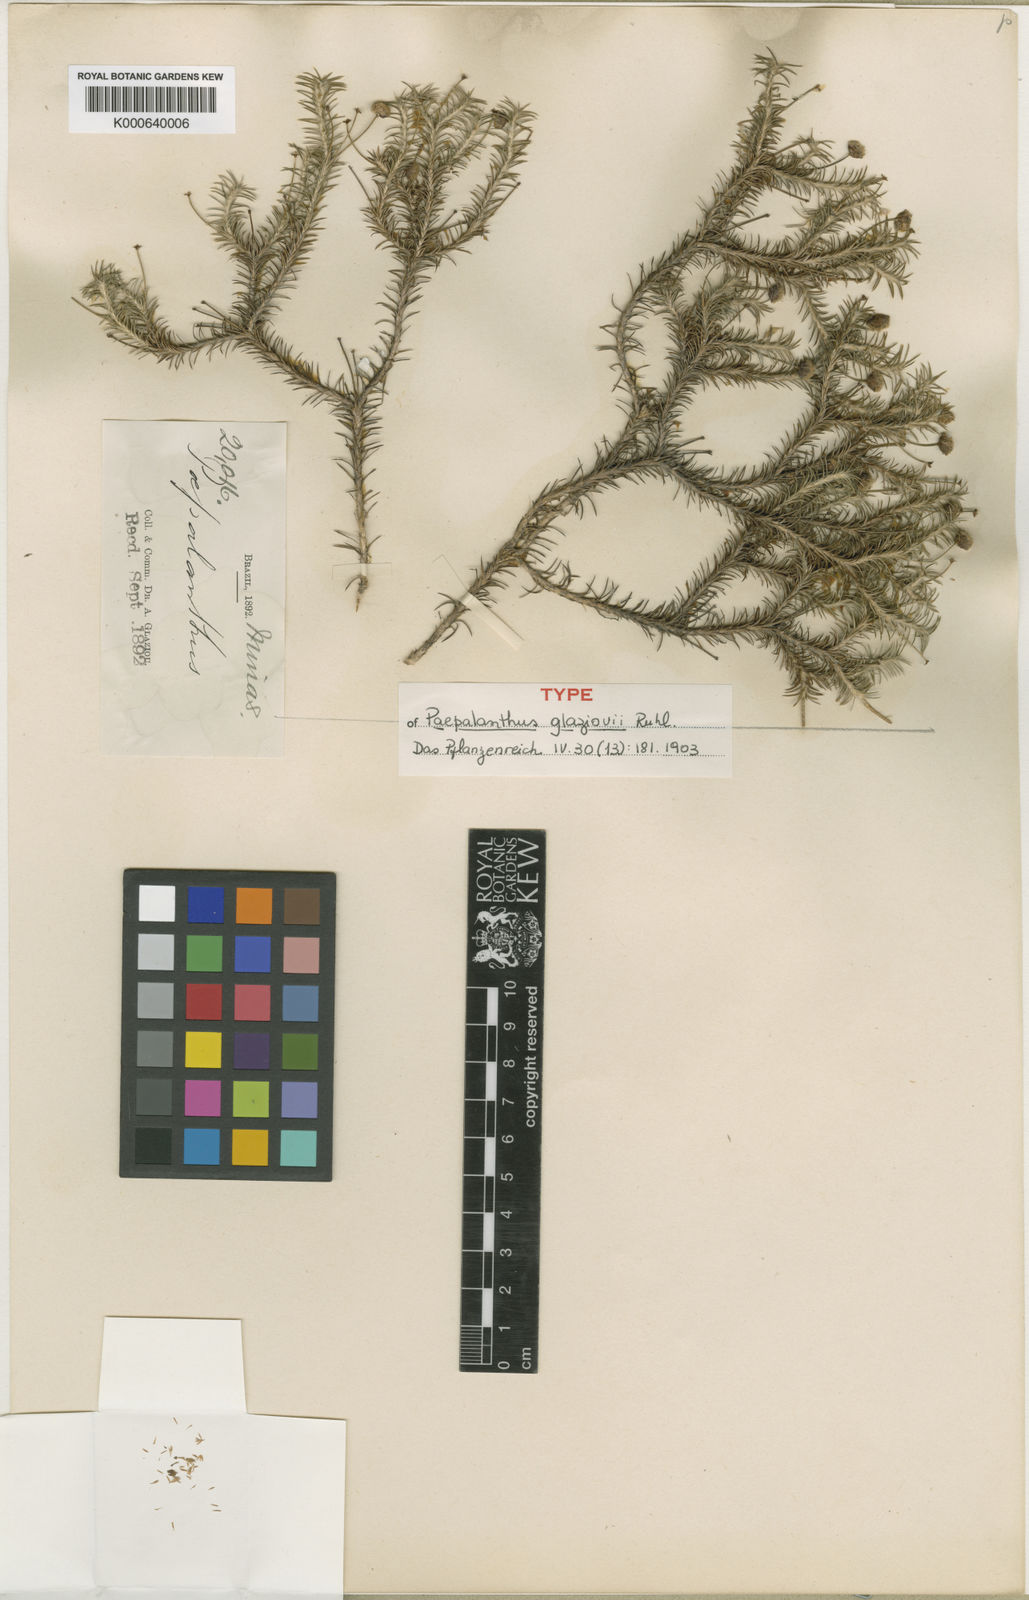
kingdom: Plantae
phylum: Tracheophyta
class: Liliopsida
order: Poales
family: Eriocaulaceae
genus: Paepalanthus
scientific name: Paepalanthus falcifolius
